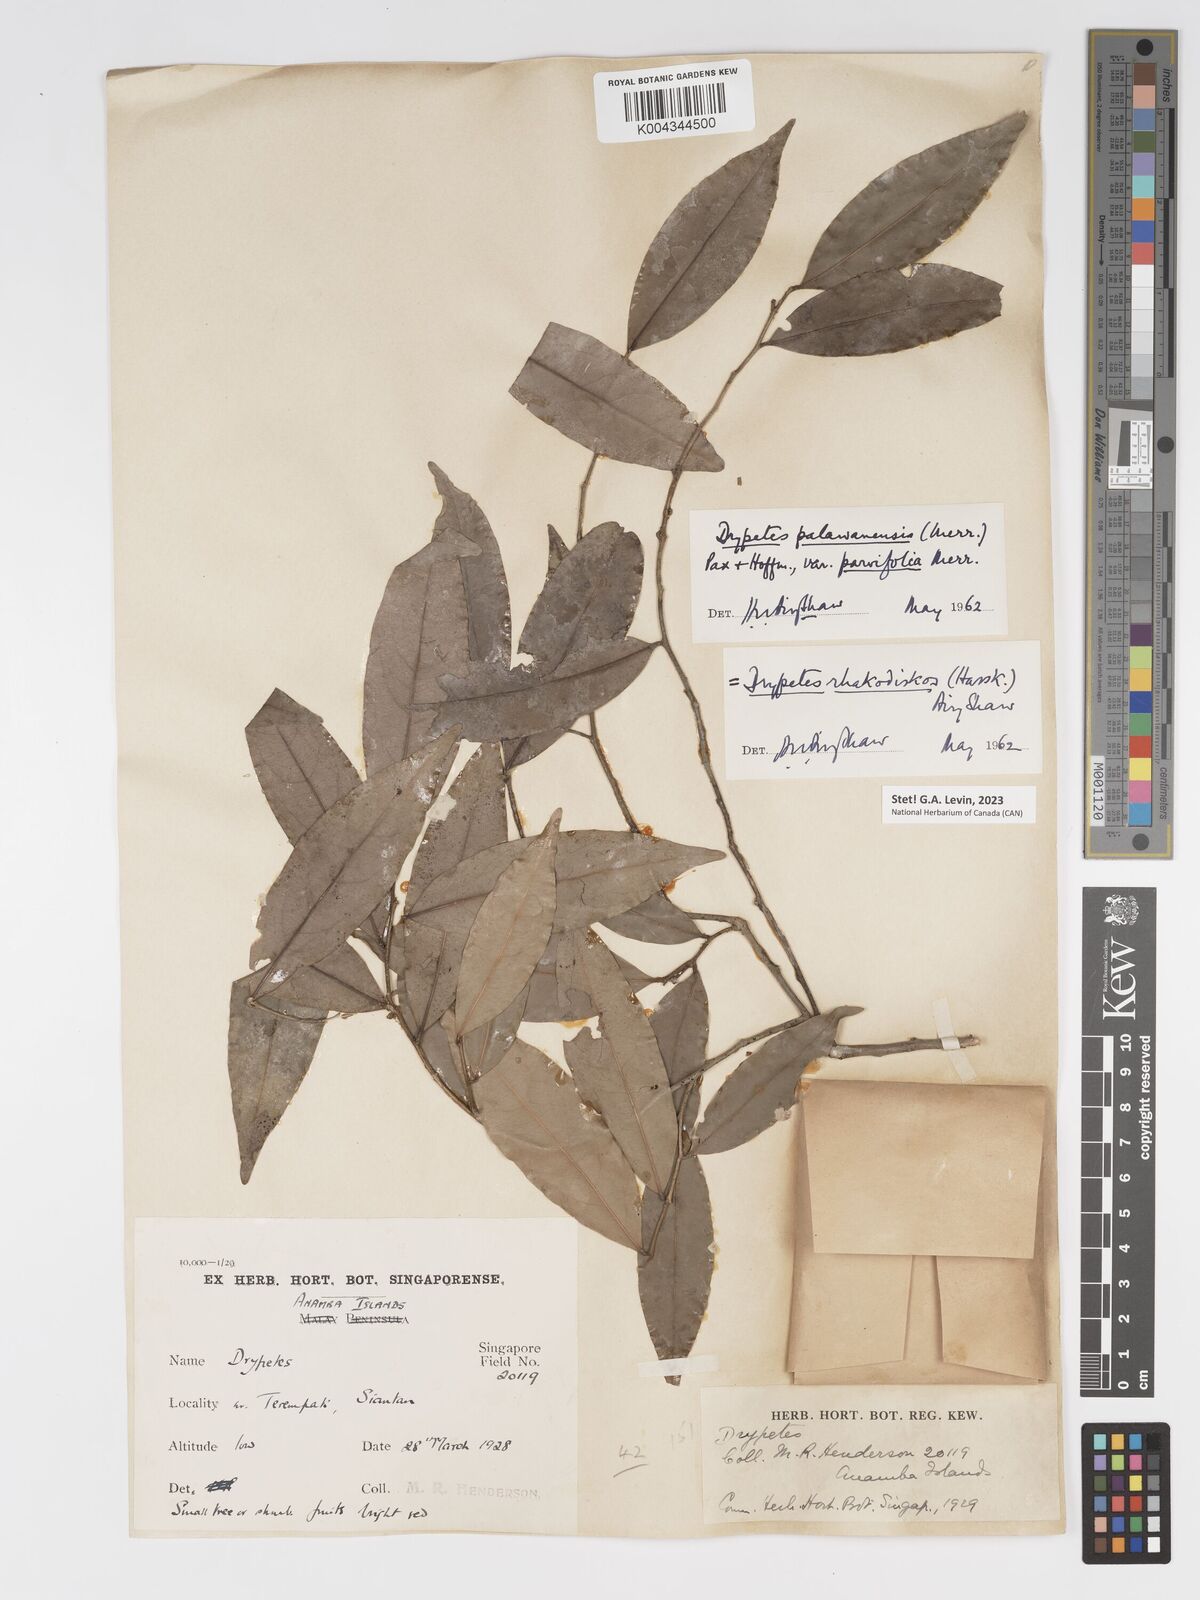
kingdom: Plantae
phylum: Tracheophyta
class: Magnoliopsida
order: Malpighiales
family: Putranjivaceae
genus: Drypetes
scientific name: Drypetes rhakodiskos
